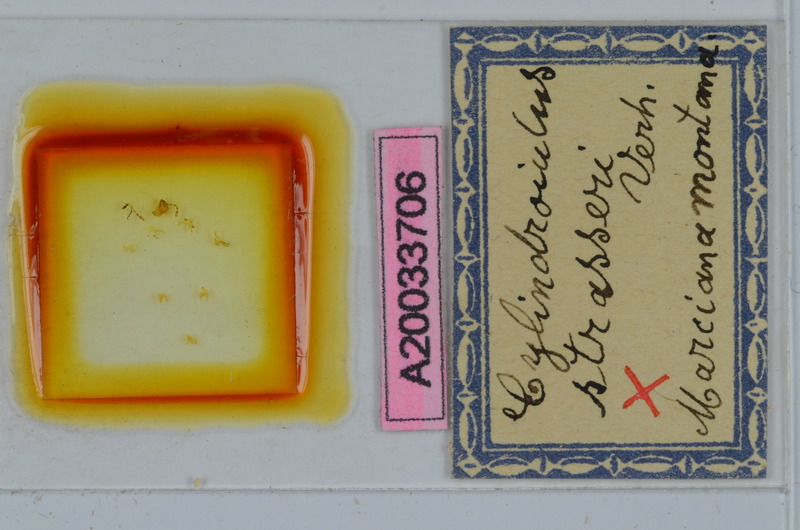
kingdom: Animalia
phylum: Arthropoda
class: Diplopoda
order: Julida
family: Julidae
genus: Cylindroiulus
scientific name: Cylindroiulus strasseri
